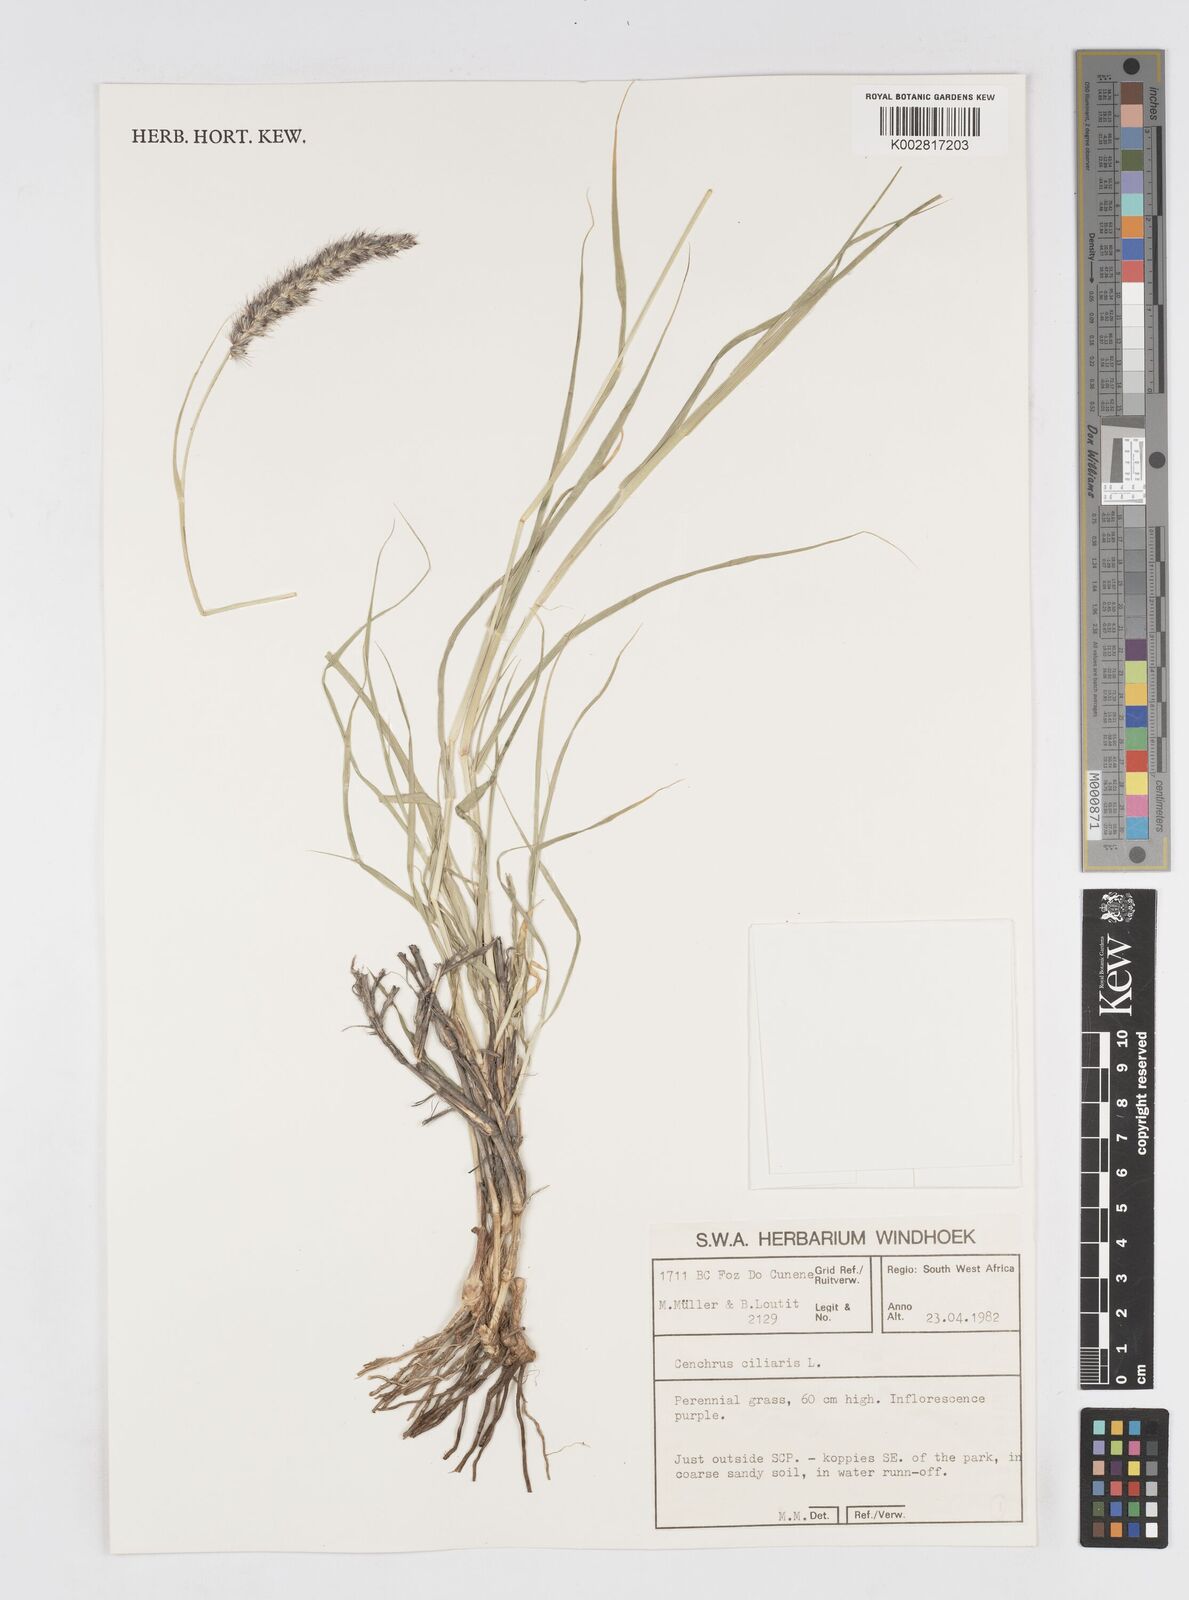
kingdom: Plantae
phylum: Tracheophyta
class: Liliopsida
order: Poales
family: Poaceae
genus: Cenchrus
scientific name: Cenchrus ciliaris
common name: Buffelgrass
